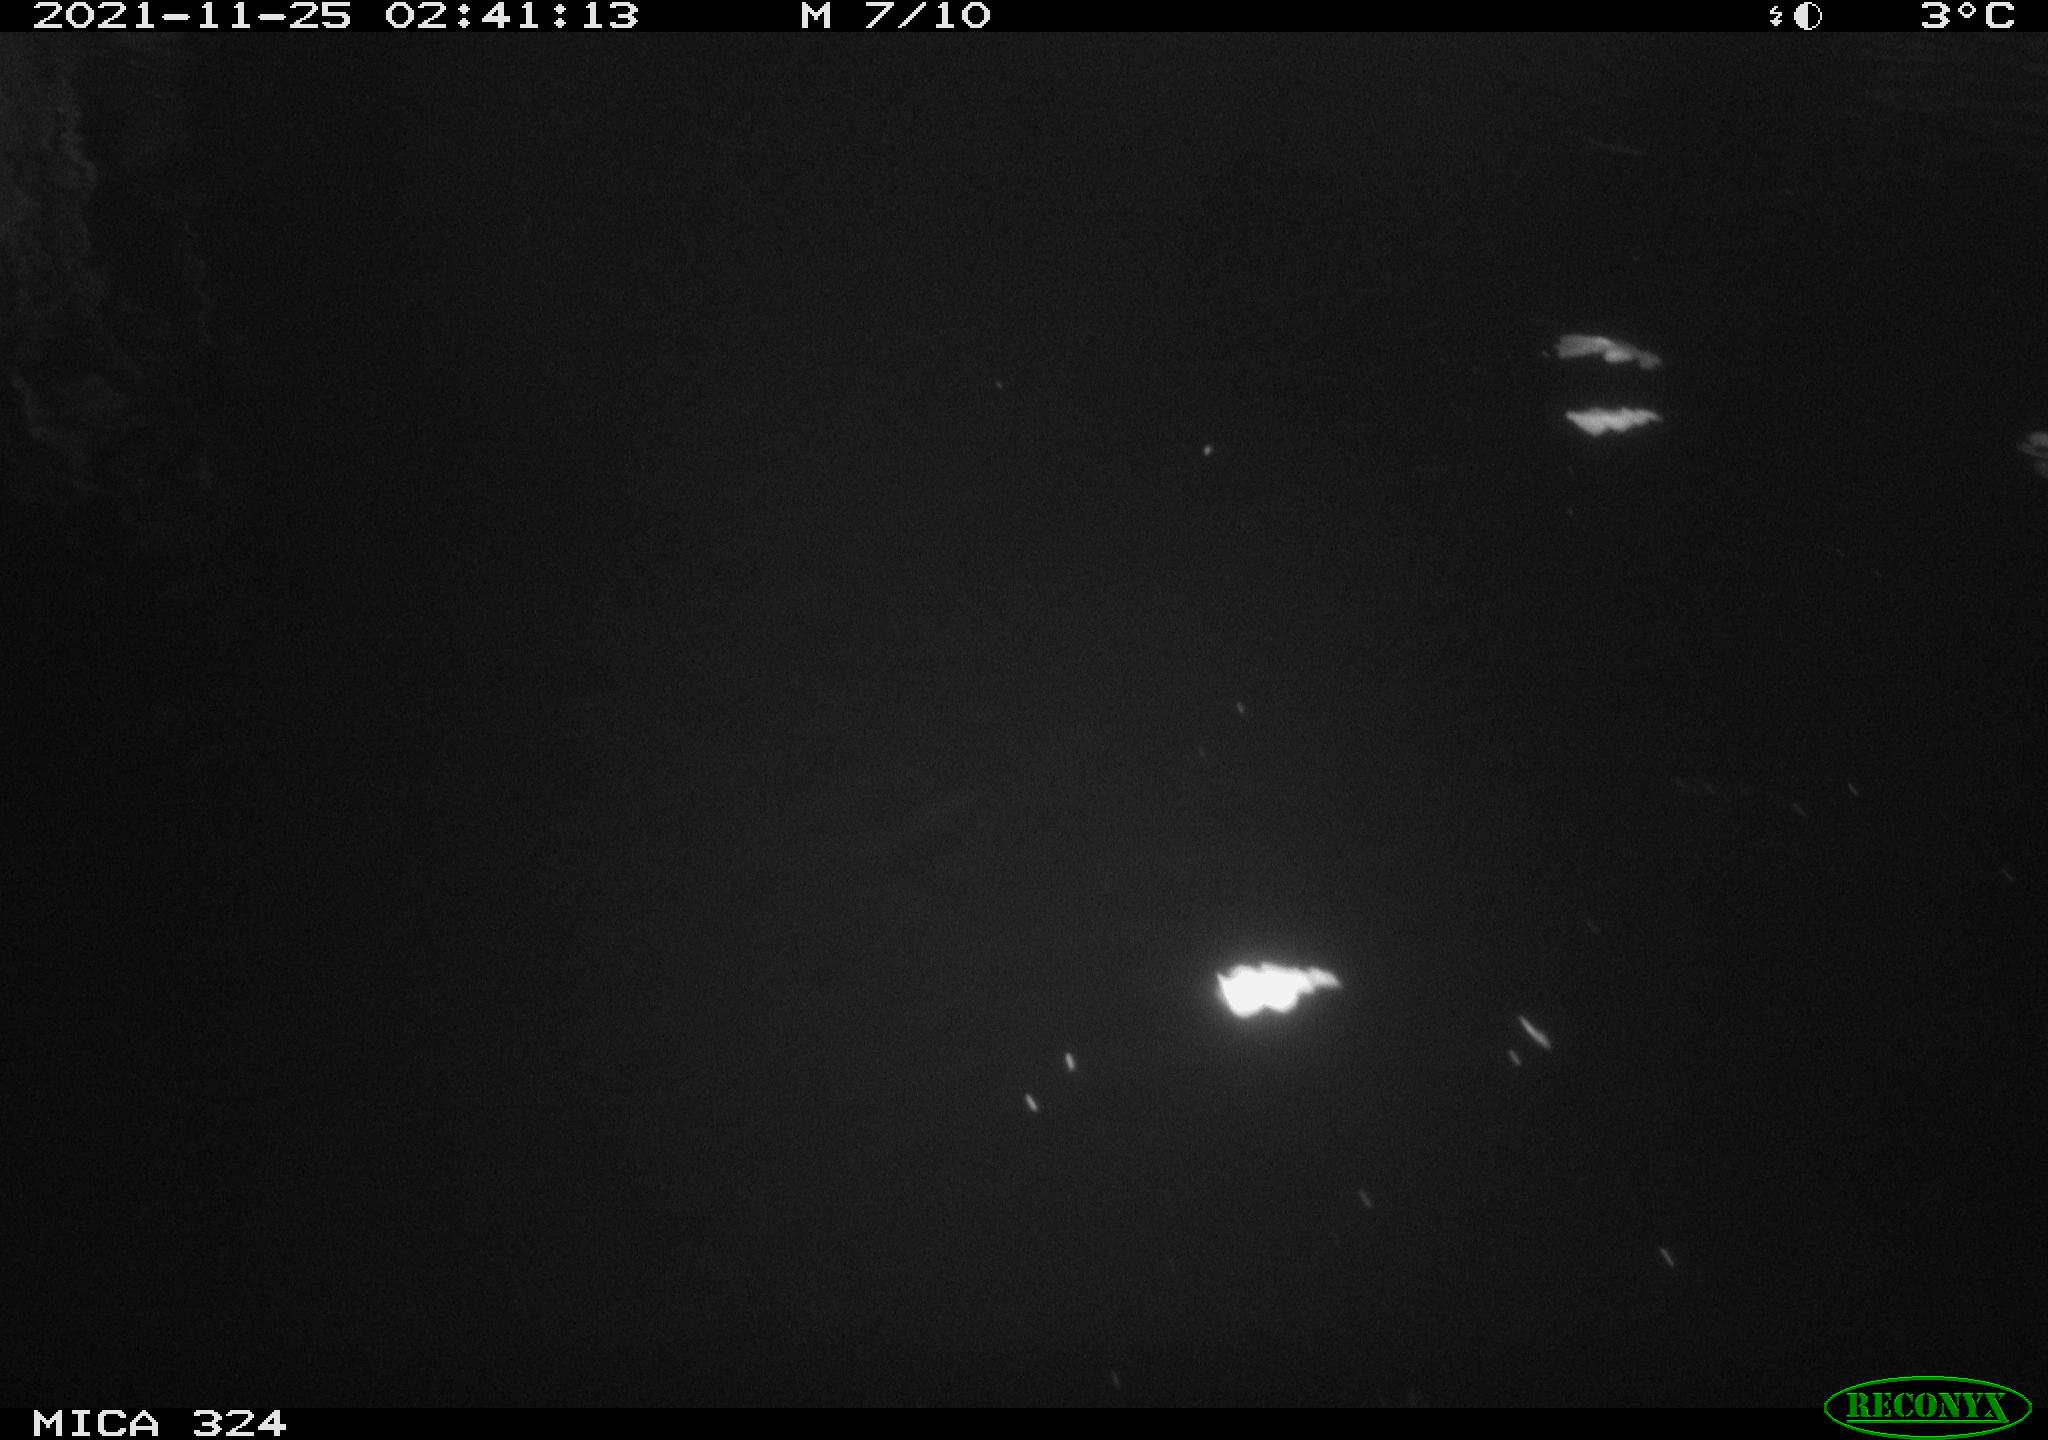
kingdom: Animalia
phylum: Chordata
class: Mammalia
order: Rodentia
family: Cricetidae
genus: Ondatra
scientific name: Ondatra zibethicus
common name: Muskrat
